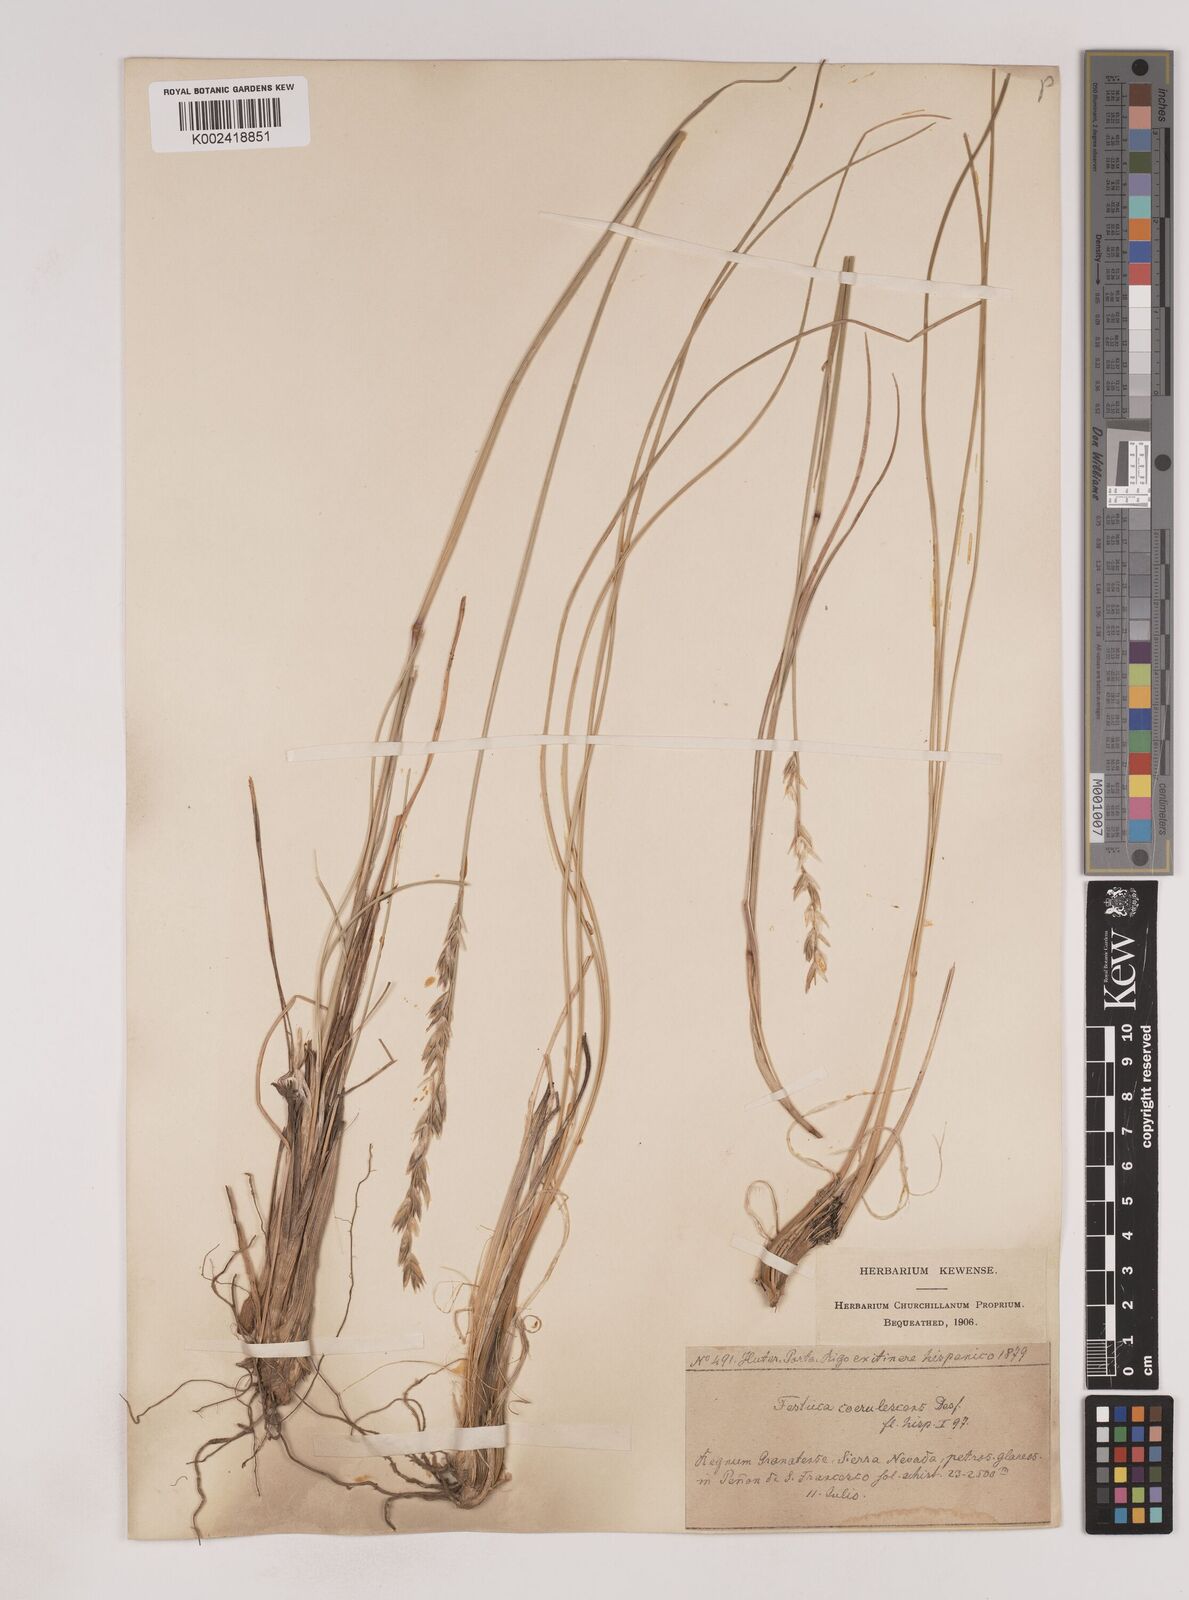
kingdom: Plantae
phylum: Tracheophyta
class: Liliopsida
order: Poales
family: Poaceae
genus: Patzkea
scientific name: Patzkea coerulescens
